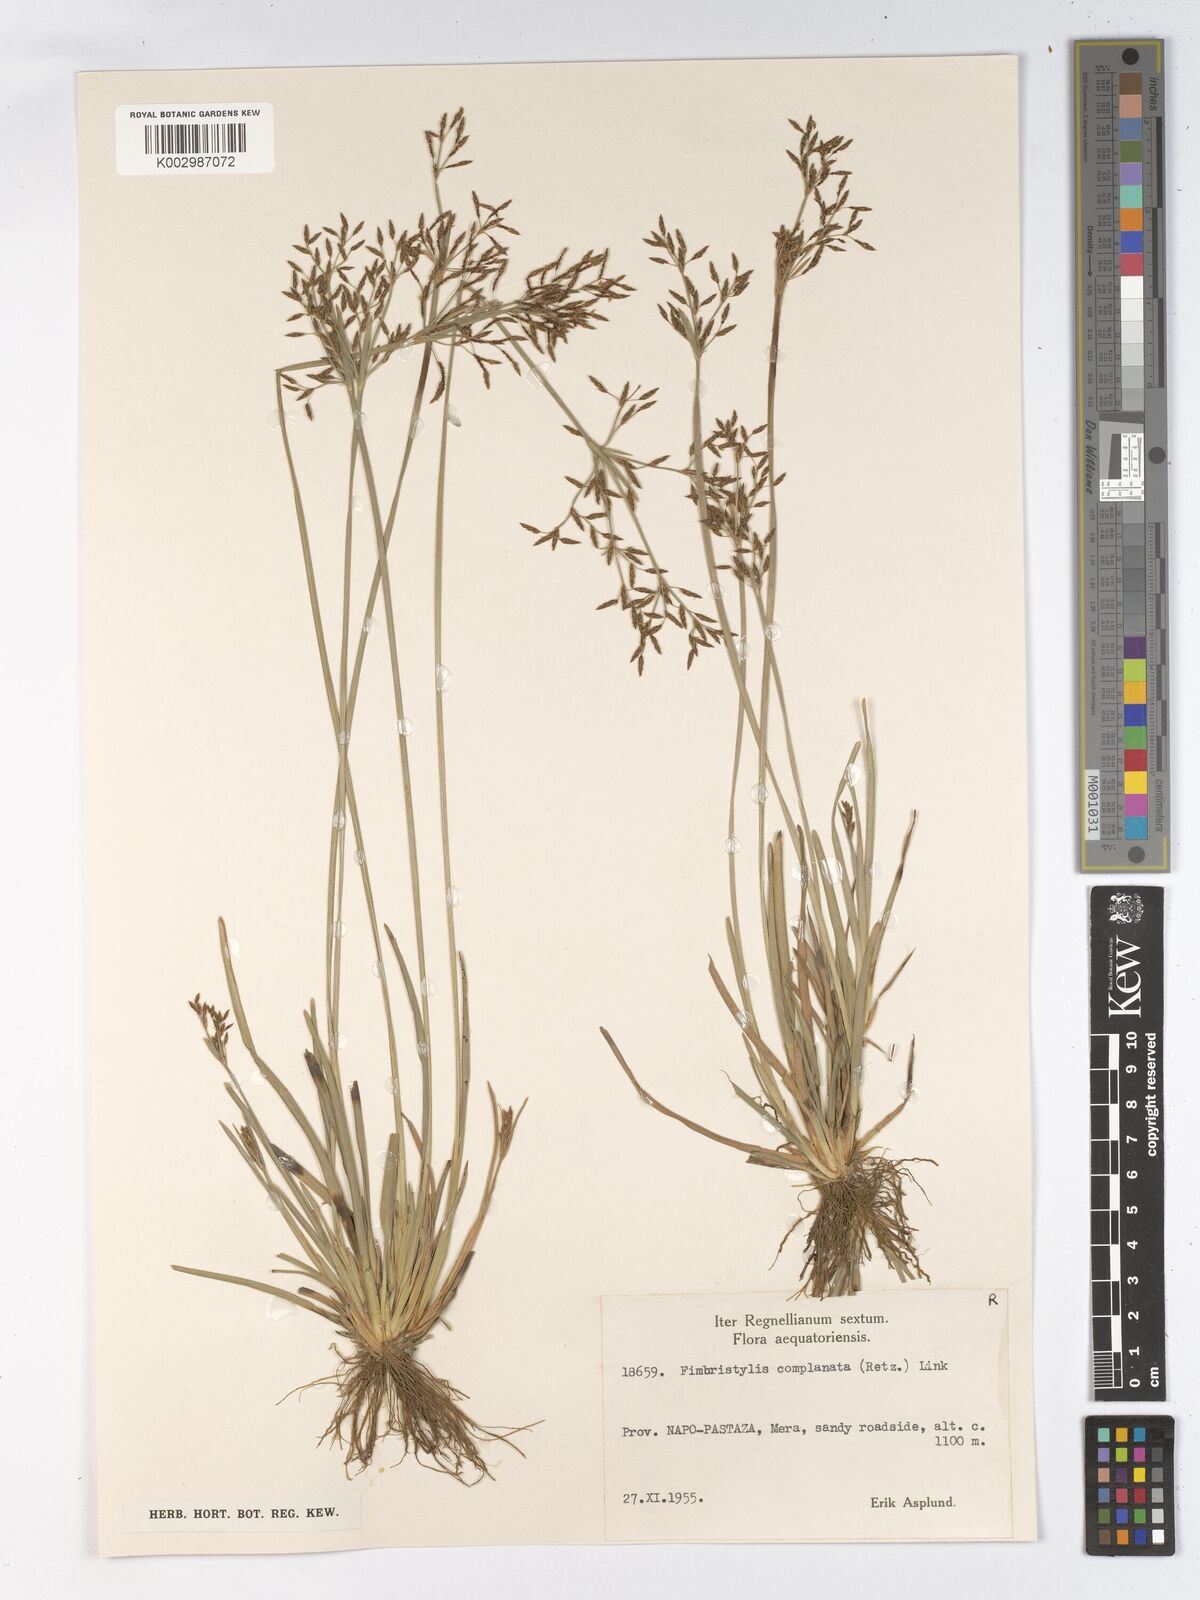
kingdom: Plantae
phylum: Tracheophyta
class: Liliopsida
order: Poales
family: Cyperaceae
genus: Fimbristylis
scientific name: Fimbristylis autumnalis
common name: Slender fimbristylis
